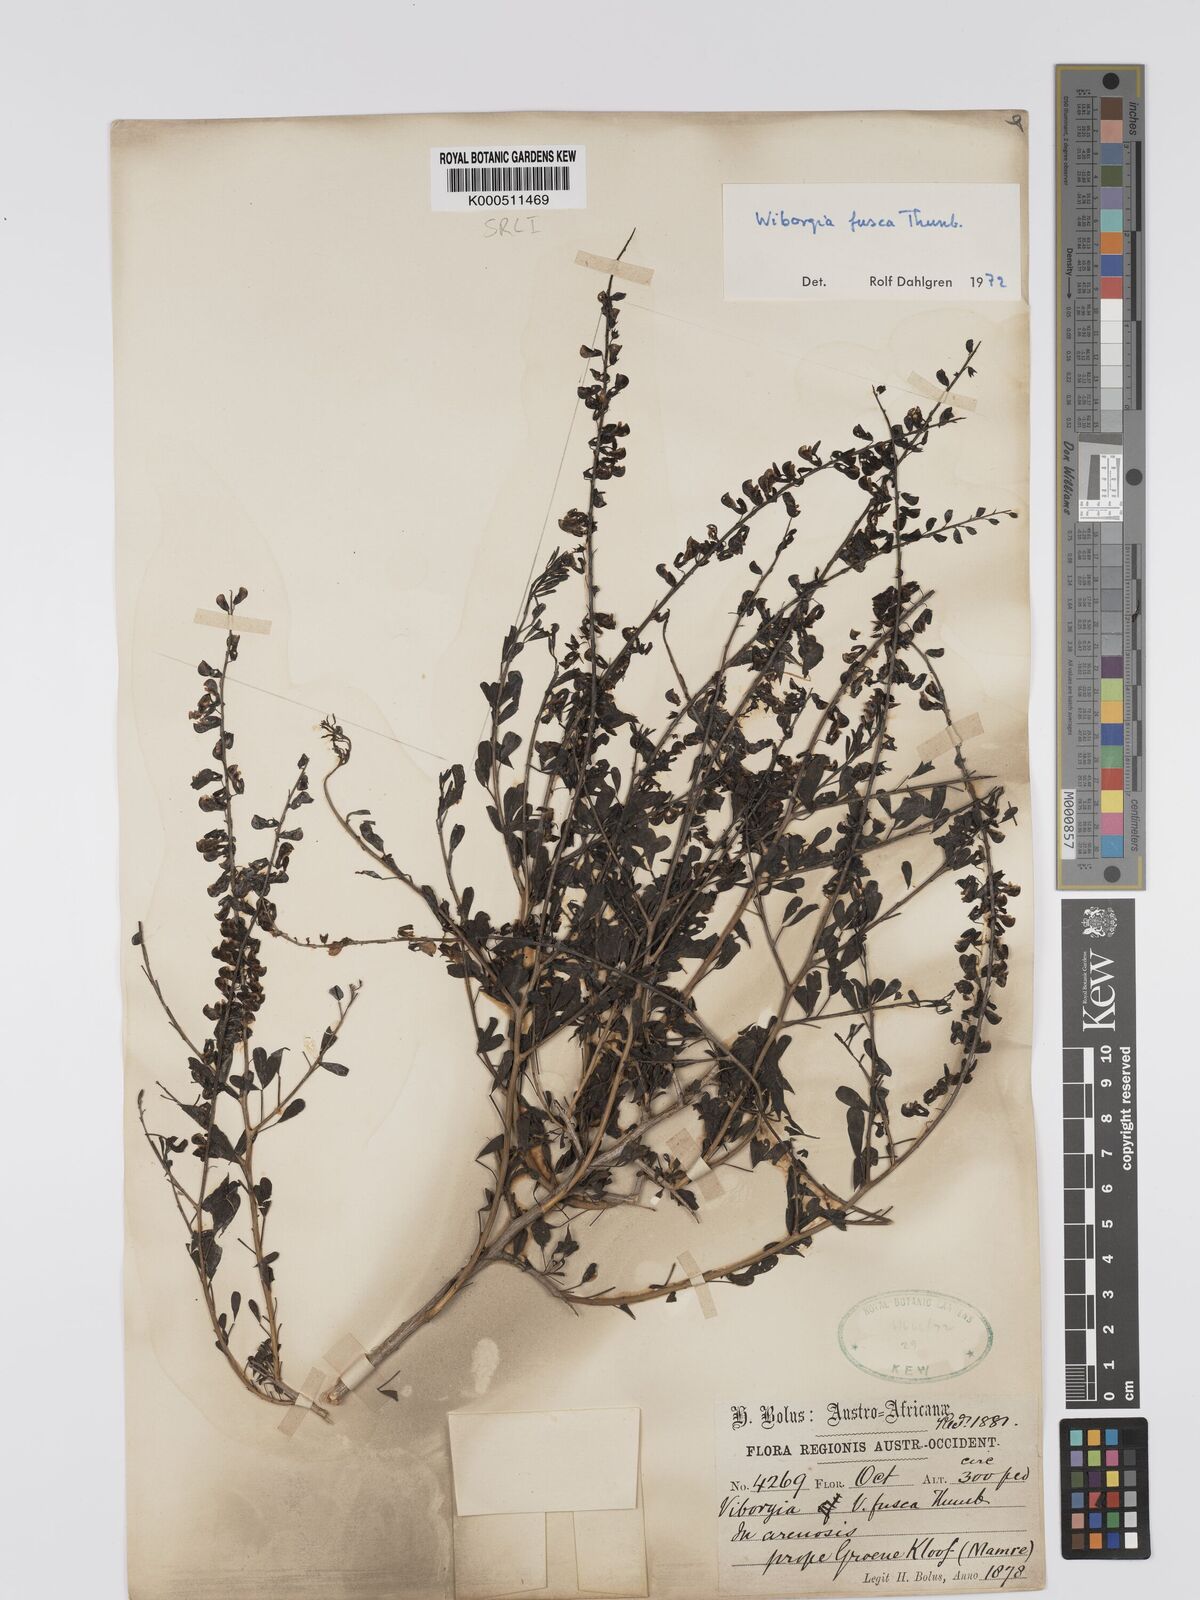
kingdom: Plantae
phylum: Tracheophyta
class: Magnoliopsida
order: Fabales
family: Fabaceae
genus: Wiborgia
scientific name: Wiborgia fusca
